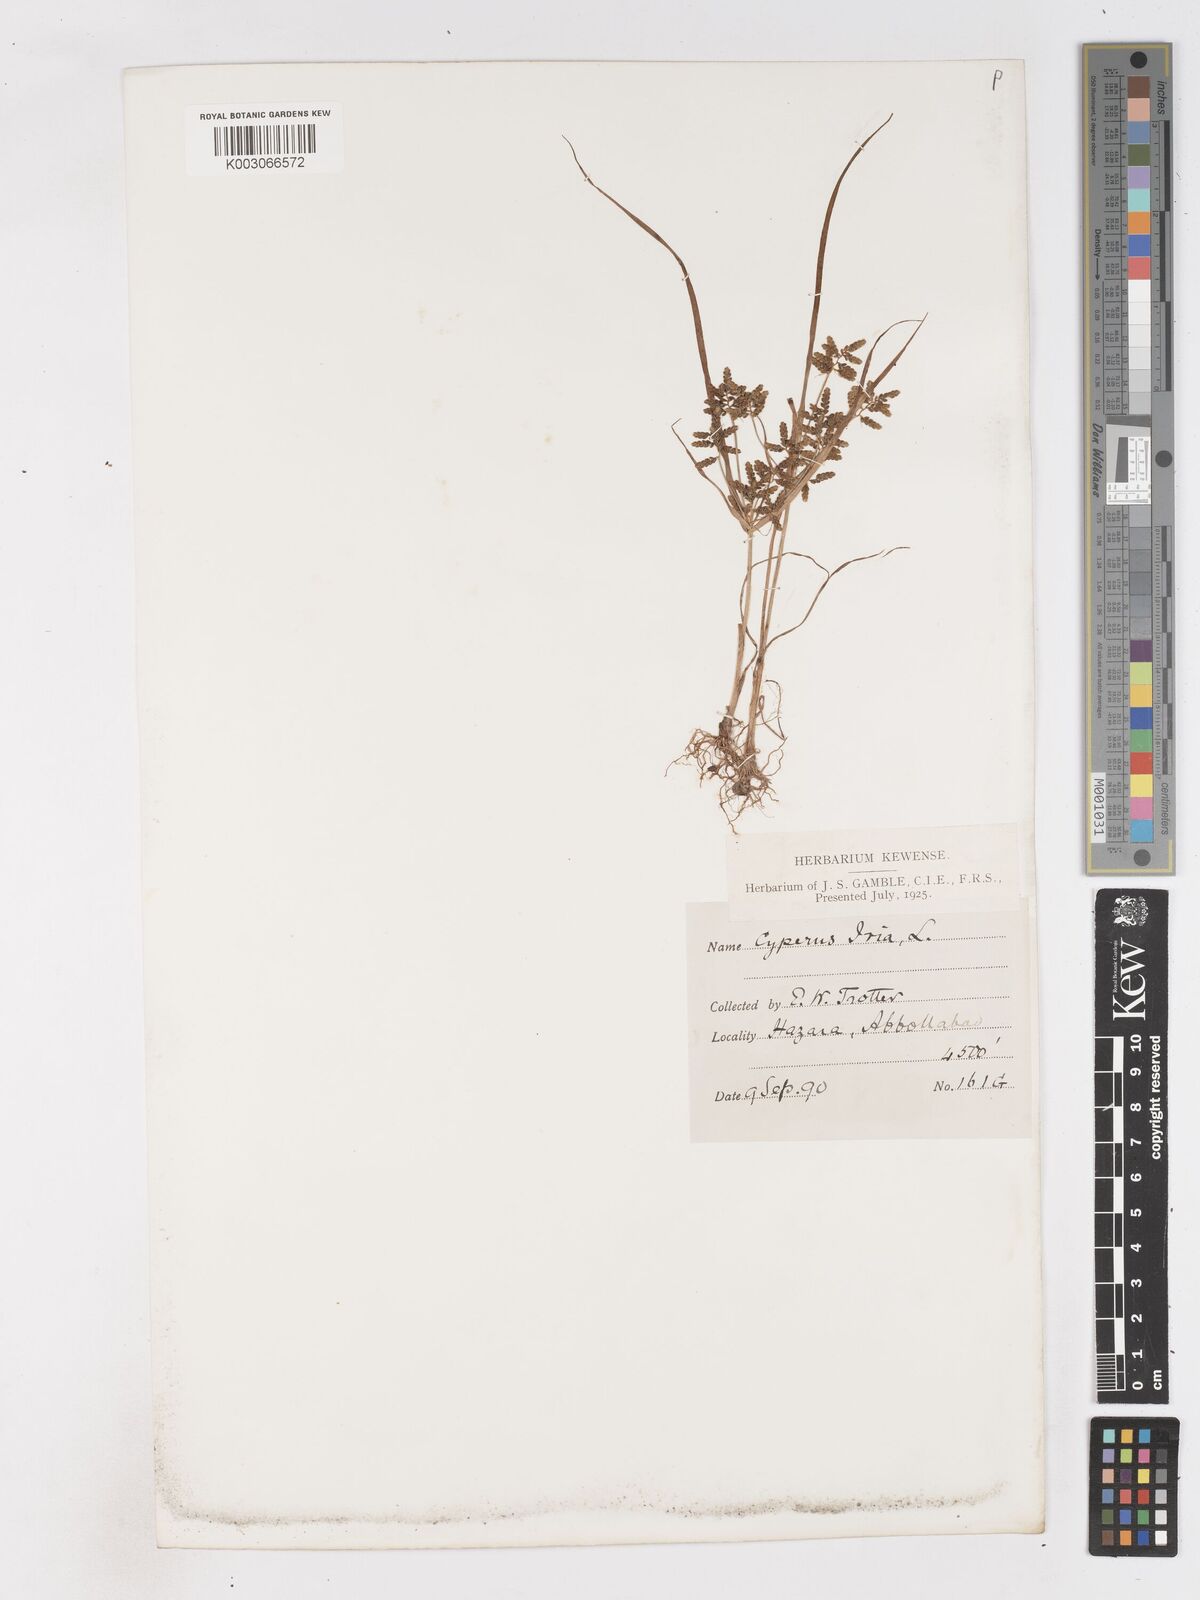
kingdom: Plantae
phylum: Tracheophyta
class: Liliopsida
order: Poales
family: Cyperaceae
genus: Cyperus
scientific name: Cyperus alulatus
